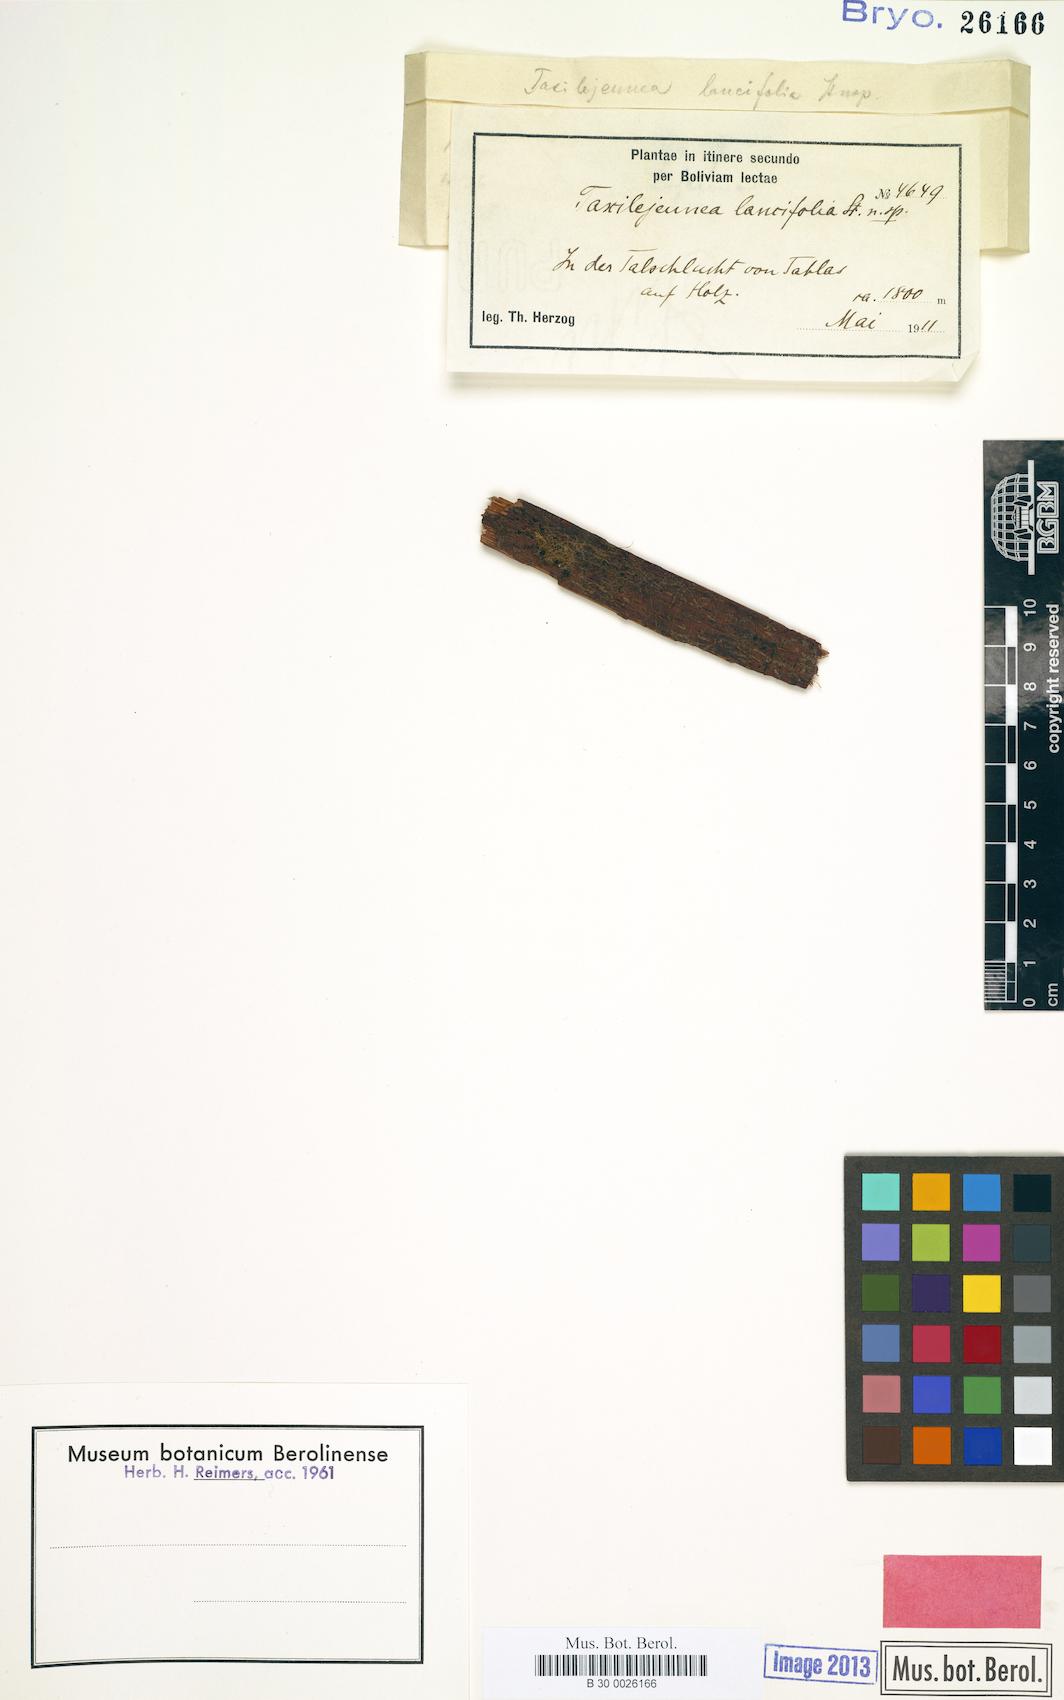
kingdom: Plantae
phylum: Marchantiophyta
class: Jungermanniopsida
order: Porellales
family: Lejeuneaceae
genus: Lejeunea
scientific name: Lejeunea osculatiana
